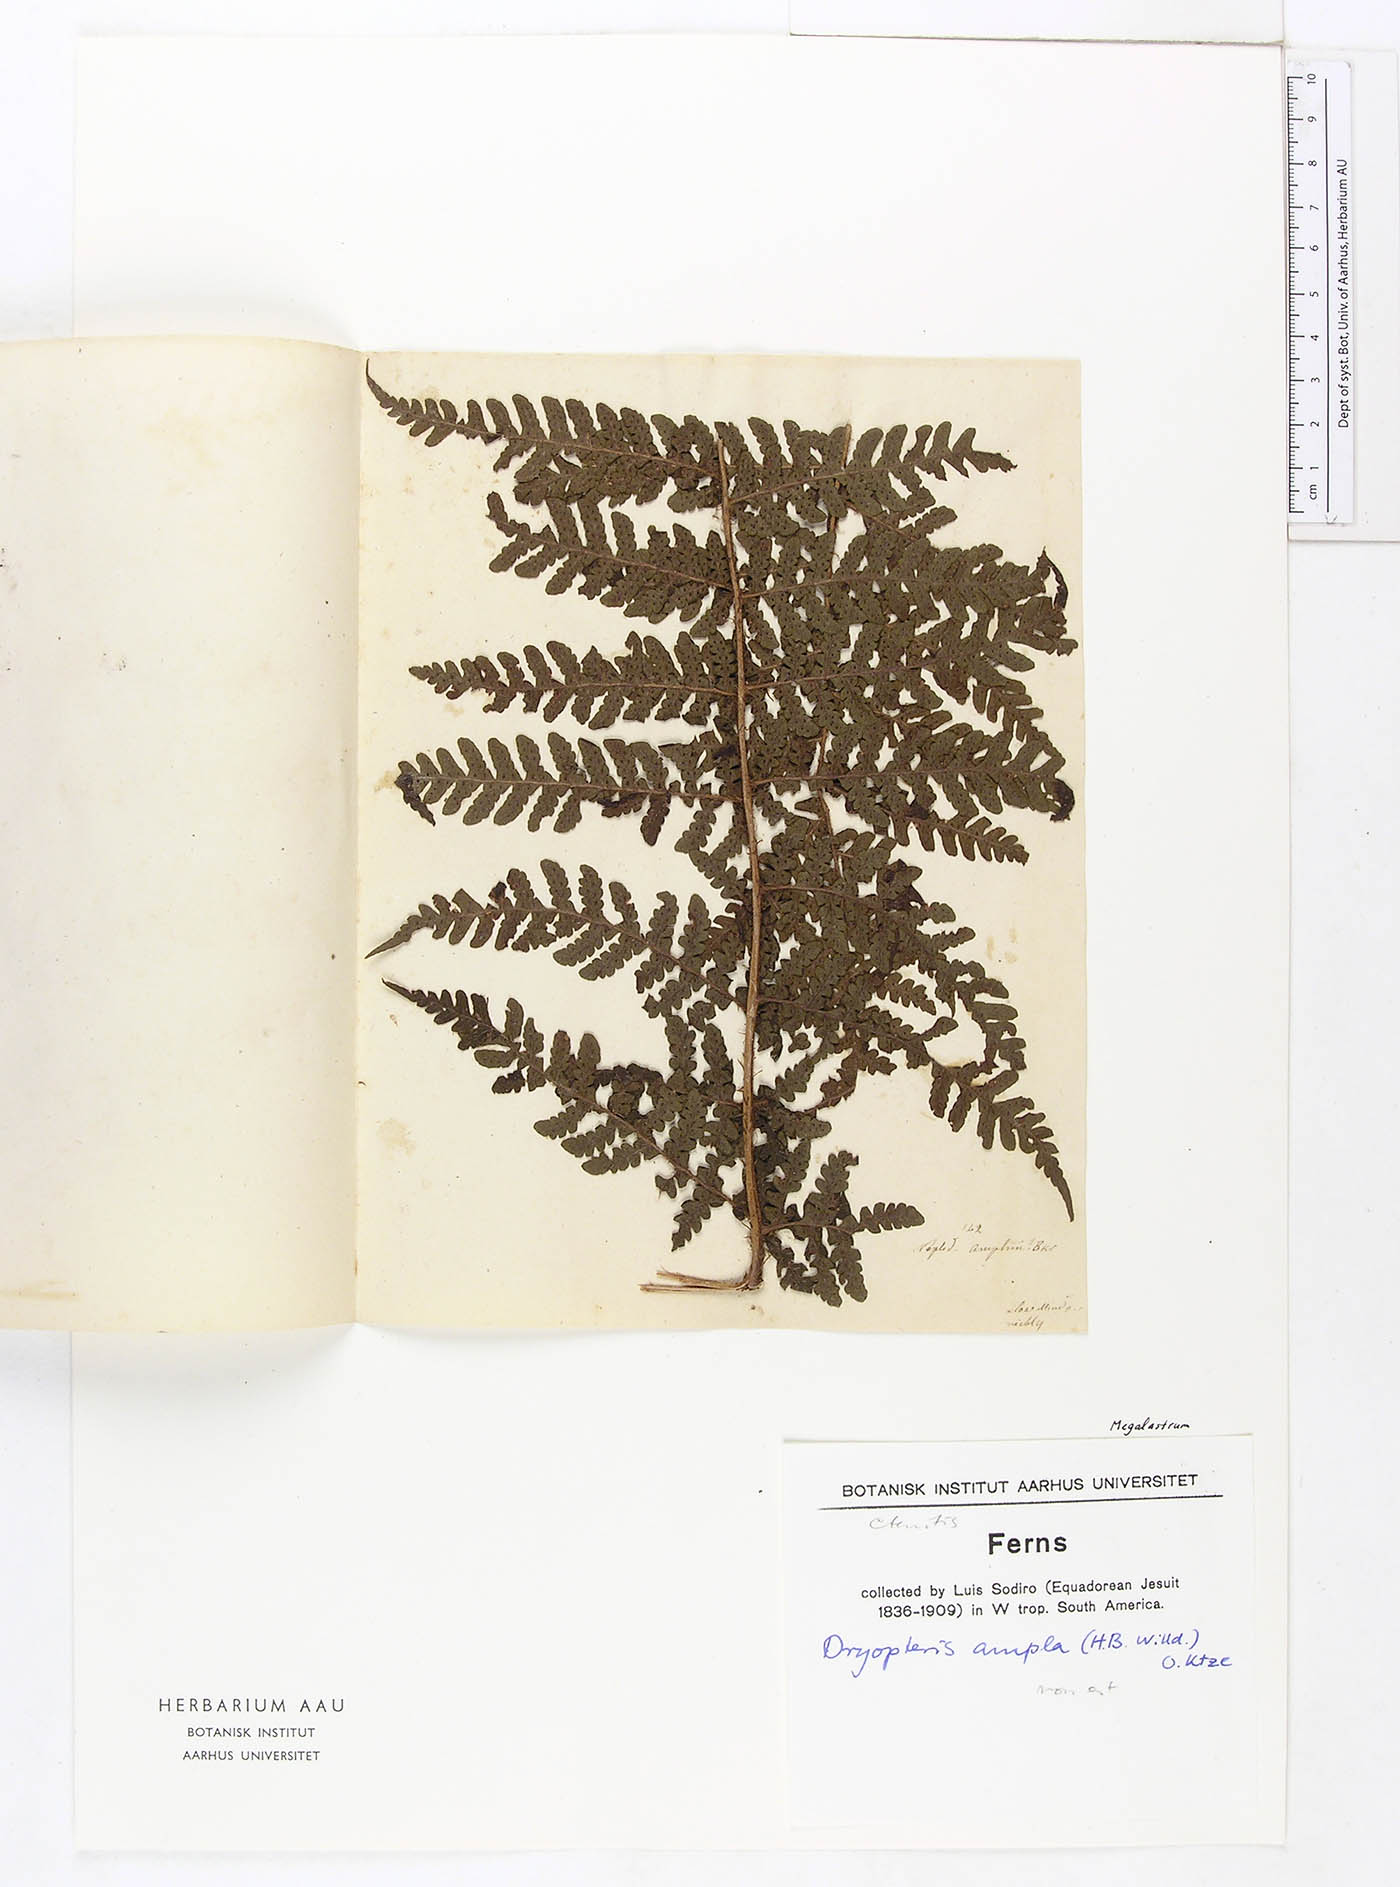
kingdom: Plantae
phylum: Tracheophyta
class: Polypodiopsida
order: Polypodiales
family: Dryopteridaceae
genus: Megalastrum
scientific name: Megalastrum alticola
